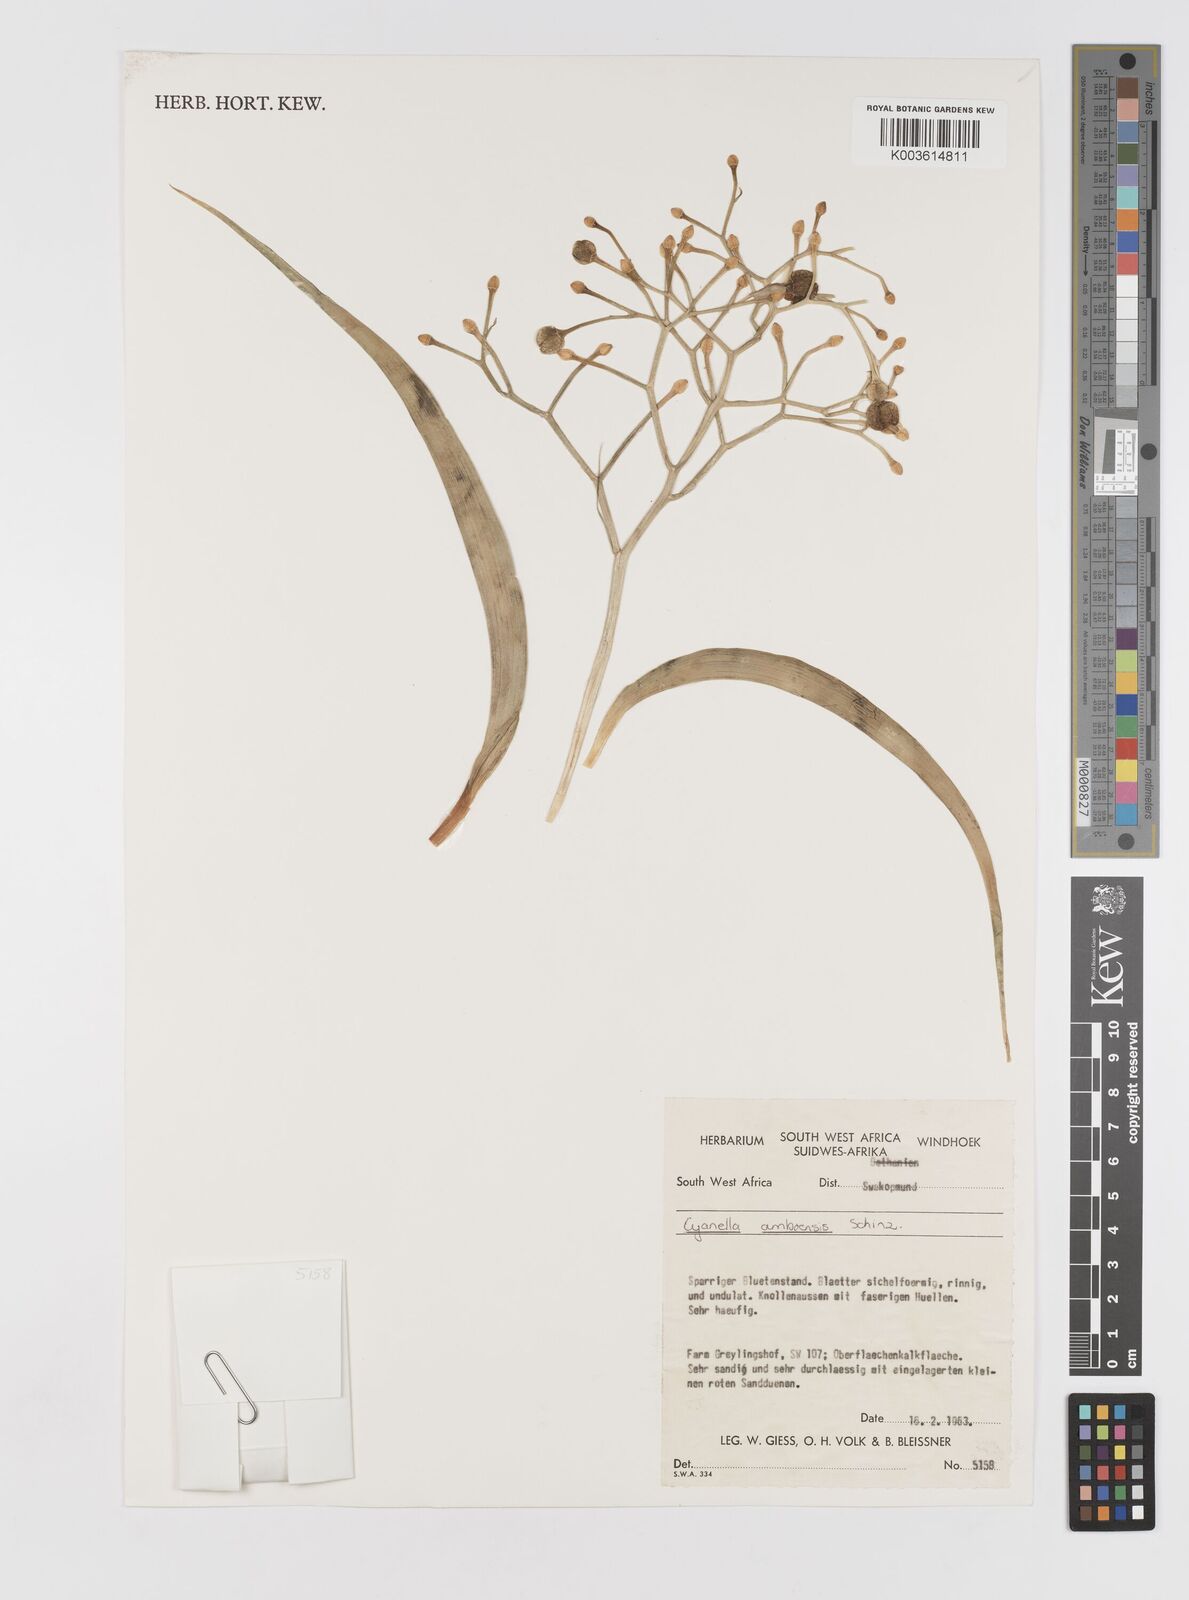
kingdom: Plantae
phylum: Tracheophyta
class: Liliopsida
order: Asparagales
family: Tecophilaeaceae
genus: Eremiolirion
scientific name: Eremiolirion amboense
